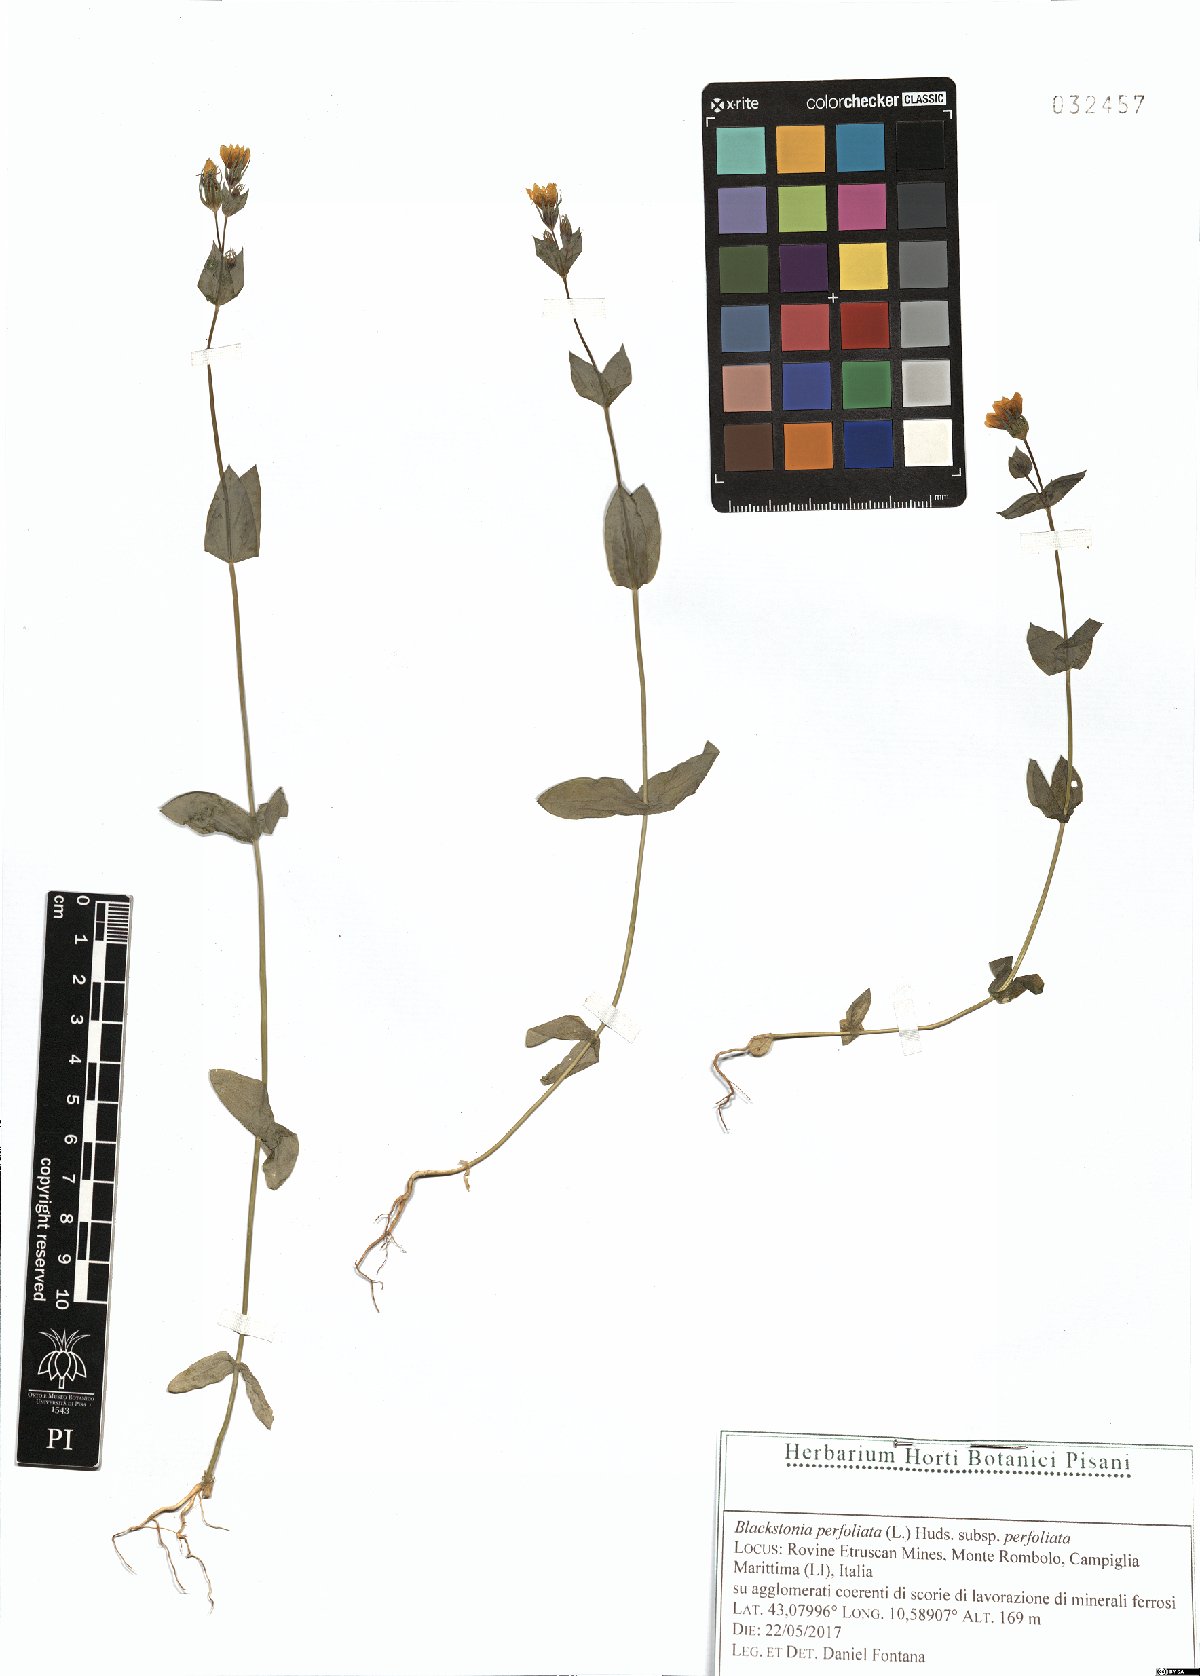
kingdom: Plantae
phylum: Tracheophyta
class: Magnoliopsida
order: Gentianales
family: Gentianaceae
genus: Blackstonia
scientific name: Blackstonia perfoliata
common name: Yellow-wort
